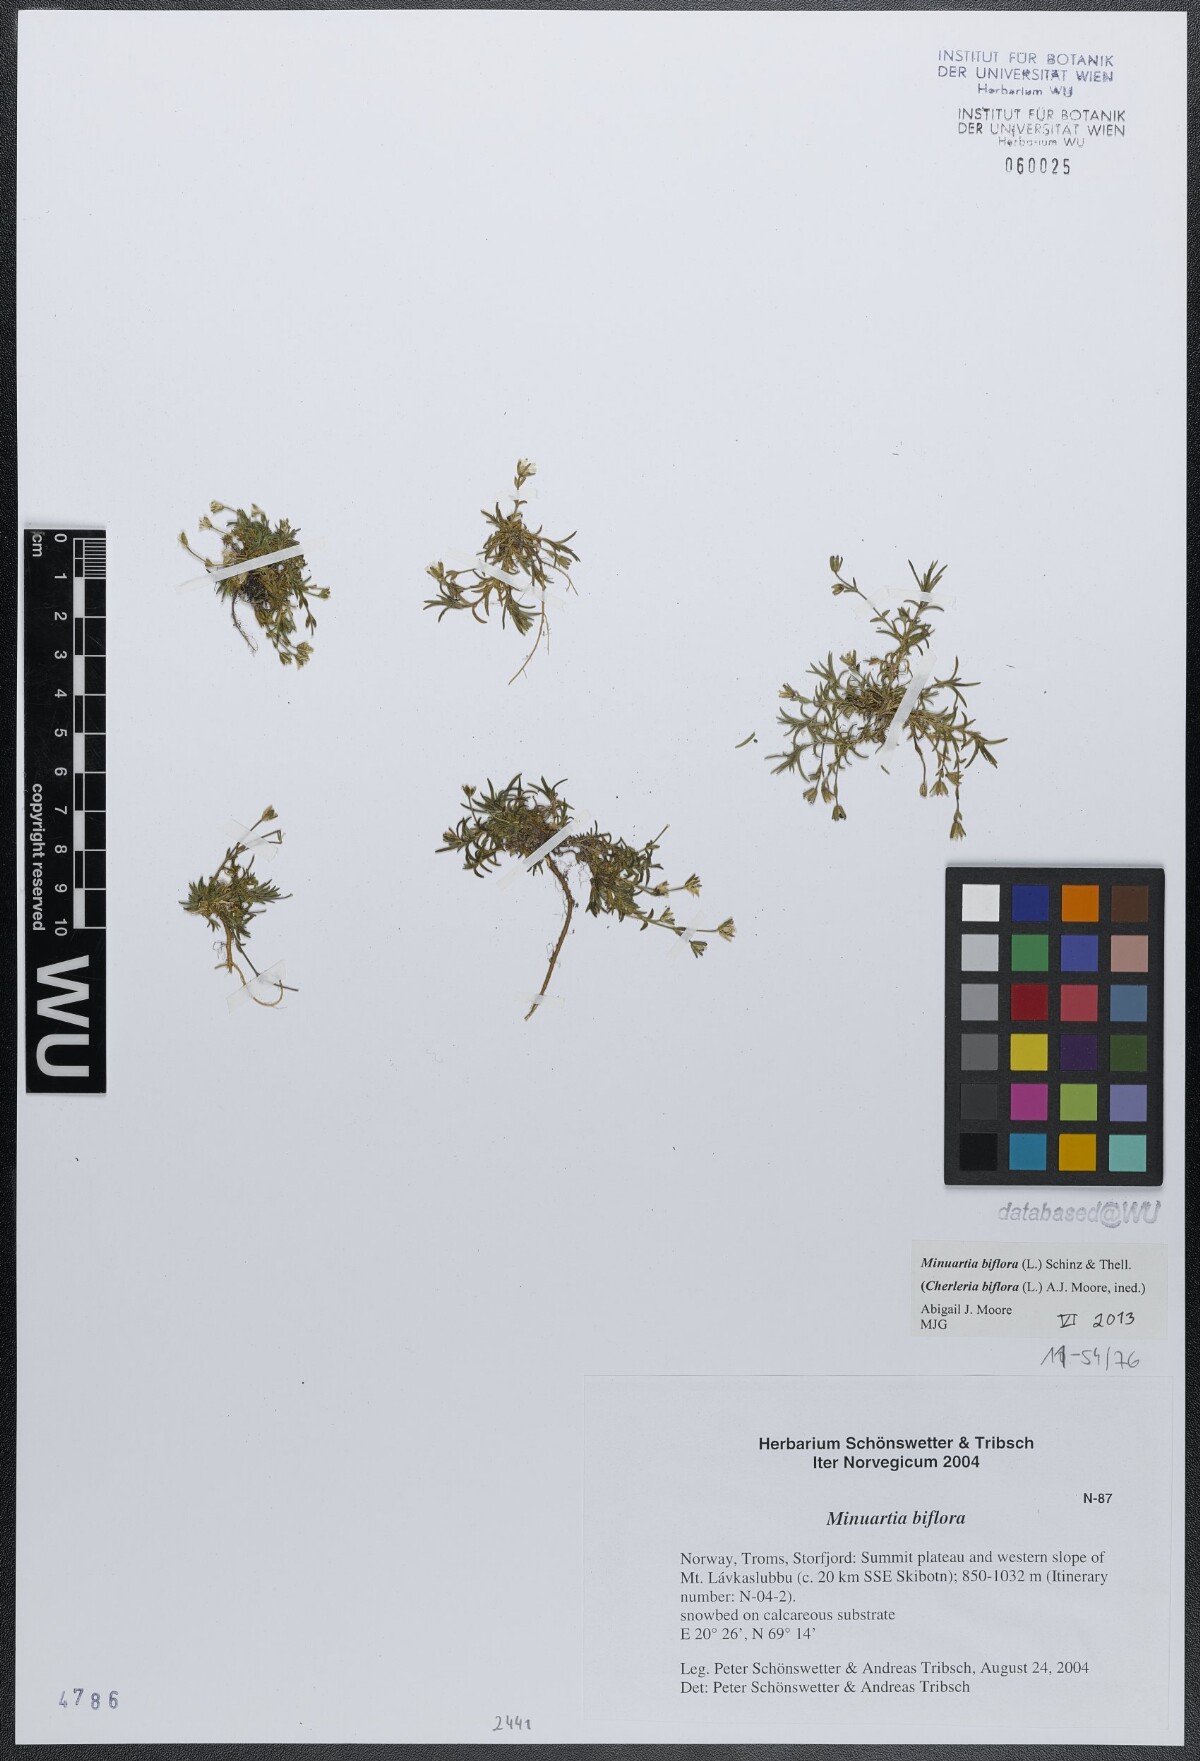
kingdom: Plantae
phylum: Tracheophyta
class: Magnoliopsida
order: Caryophyllales
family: Caryophyllaceae
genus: Cherleria
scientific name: Cherleria biflora
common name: Mountain sandwort
